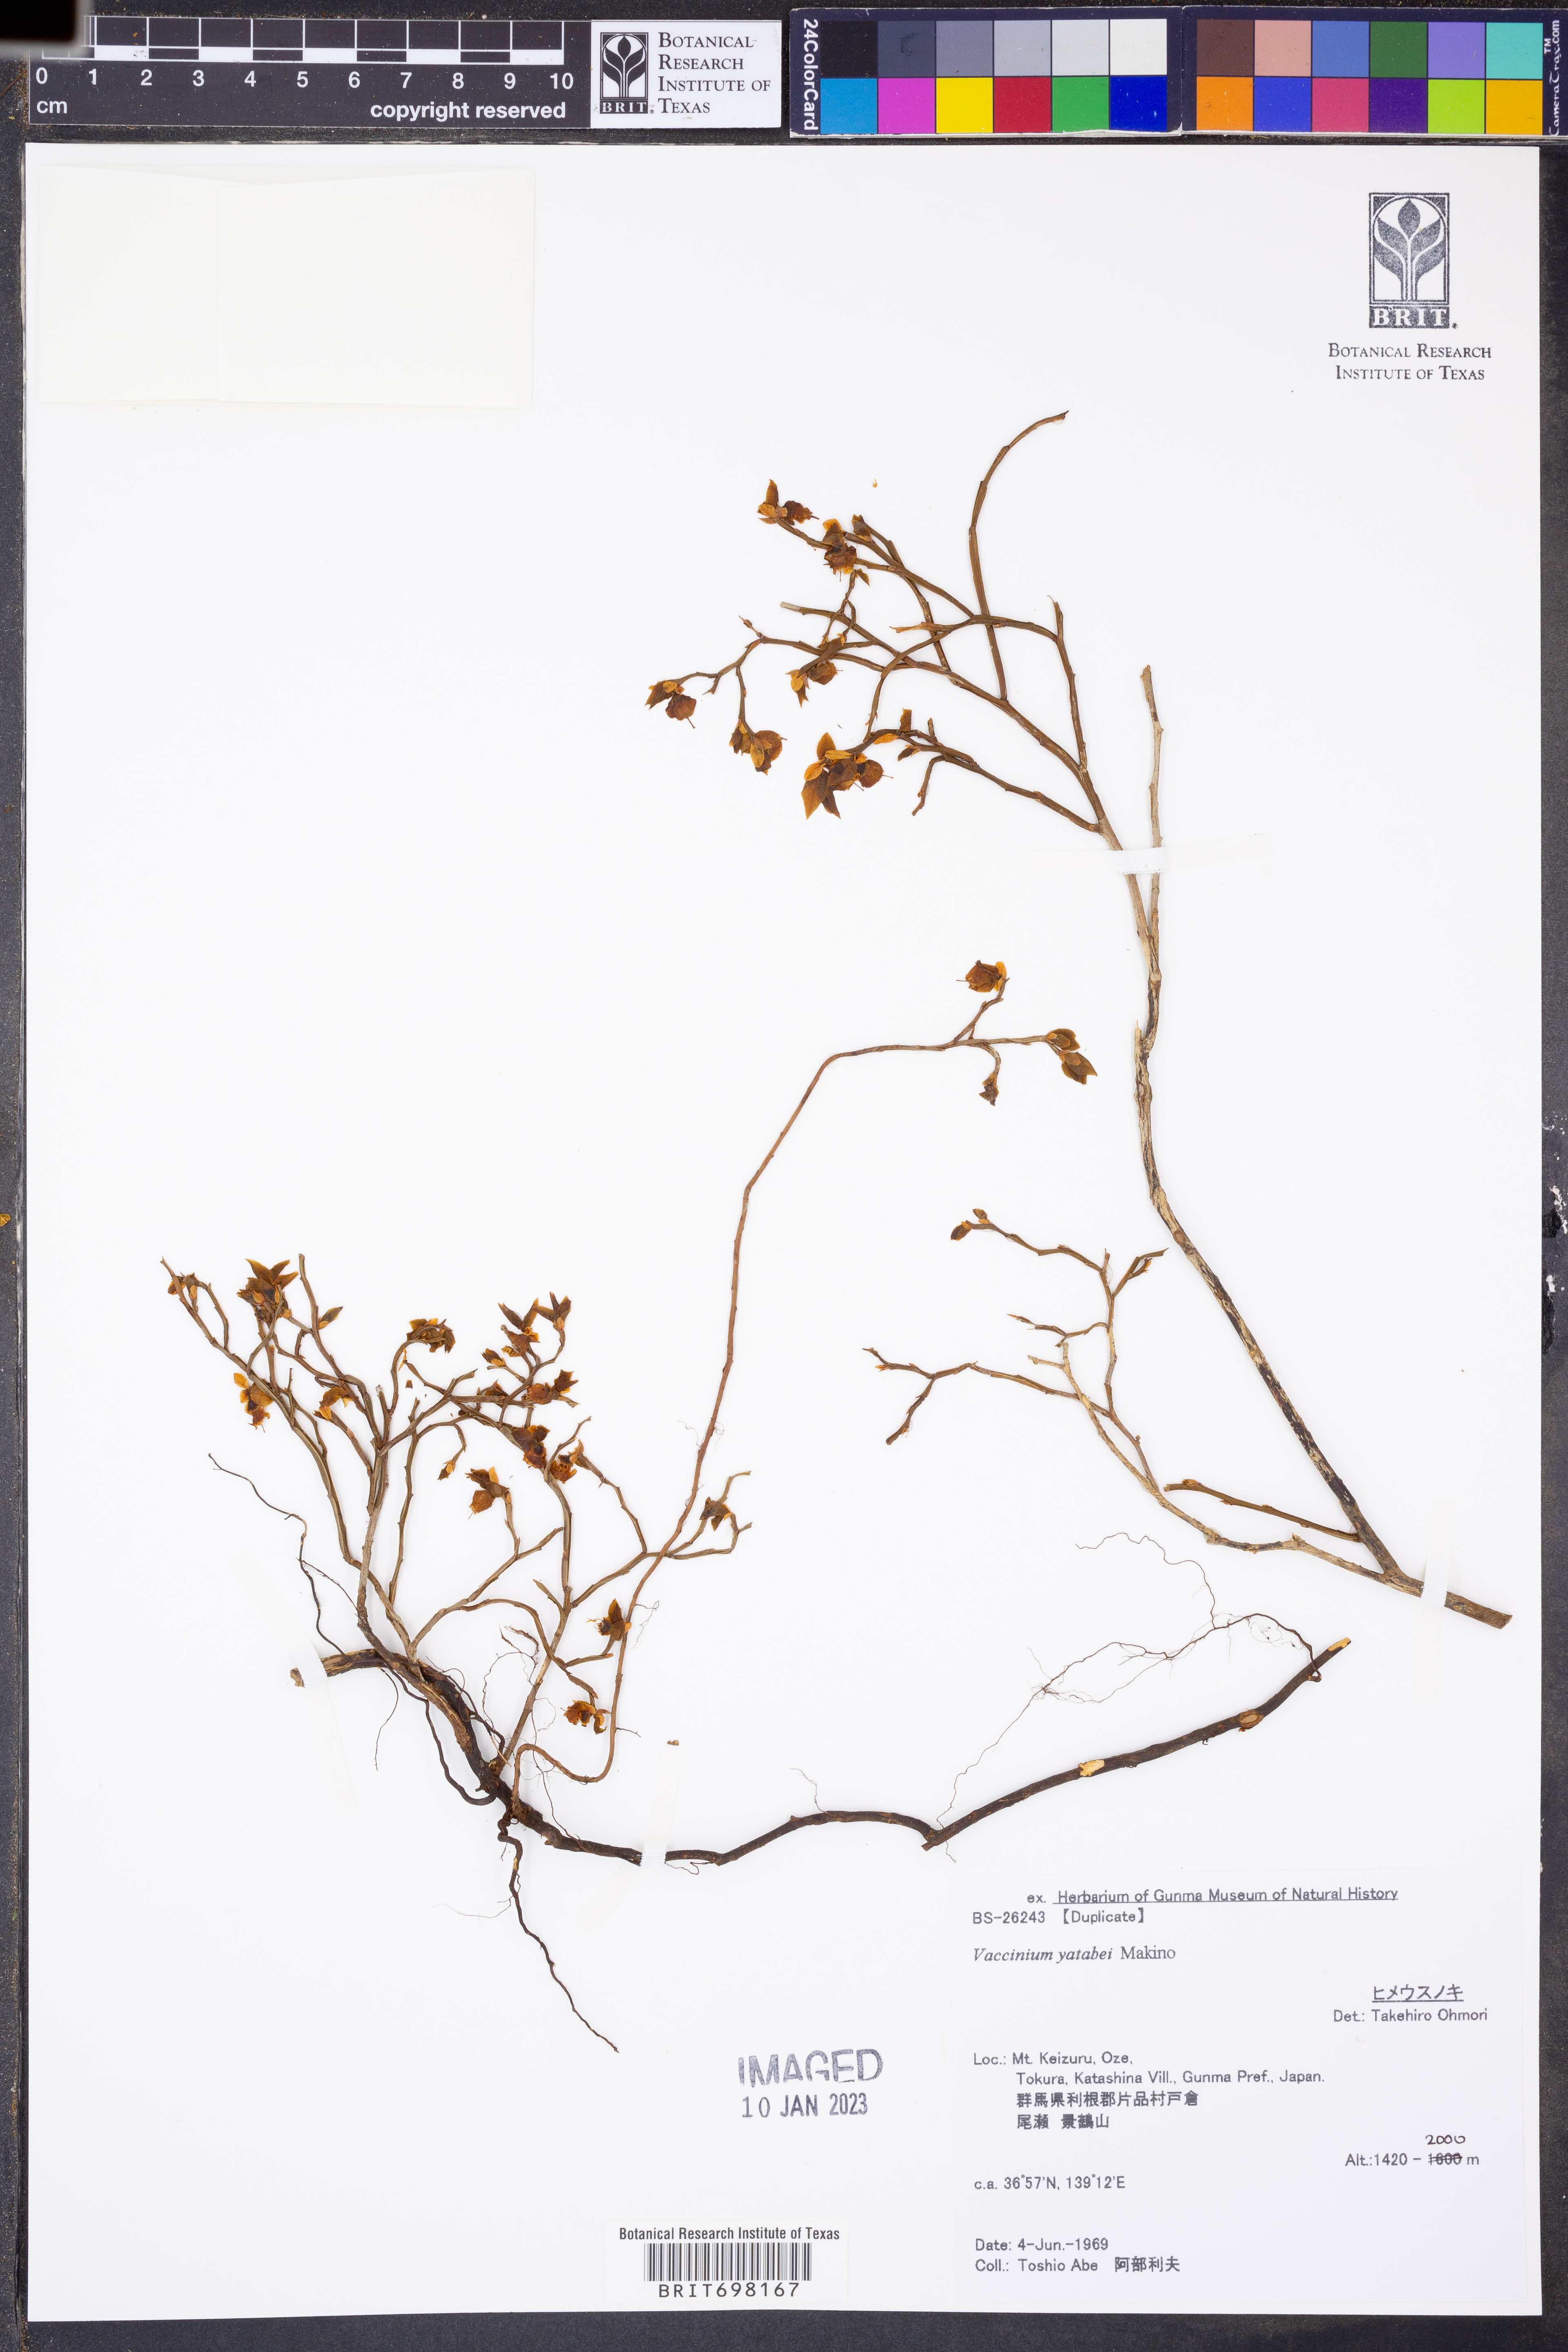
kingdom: Plantae
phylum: Tracheophyta
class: Magnoliopsida
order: Ericales
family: Ericaceae
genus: Vaccinium
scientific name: Vaccinium yatabei
